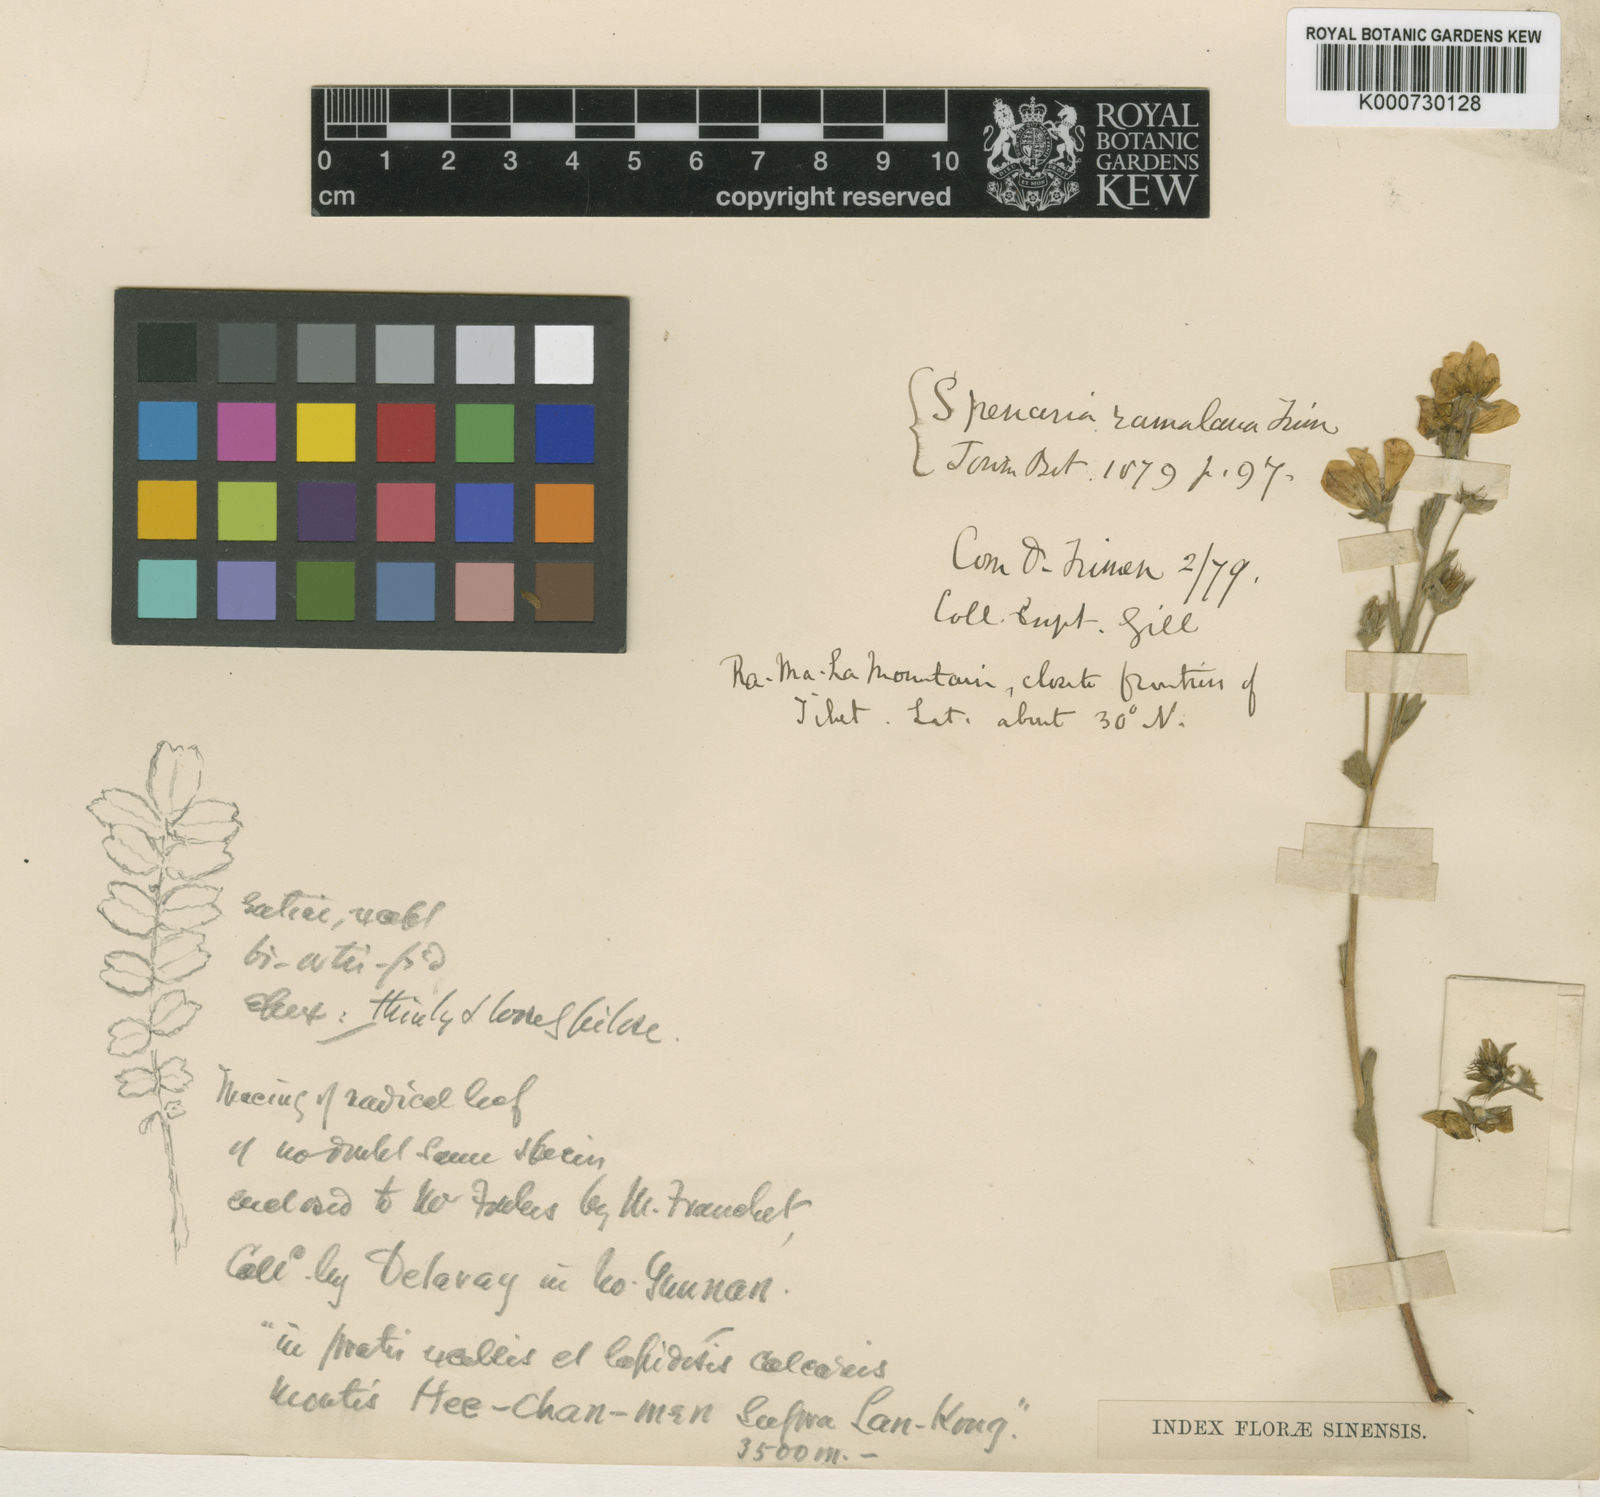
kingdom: Plantae
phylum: Tracheophyta
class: Magnoliopsida
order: Rosales
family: Rosaceae
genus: Spenceria
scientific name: Spenceria ramalana
